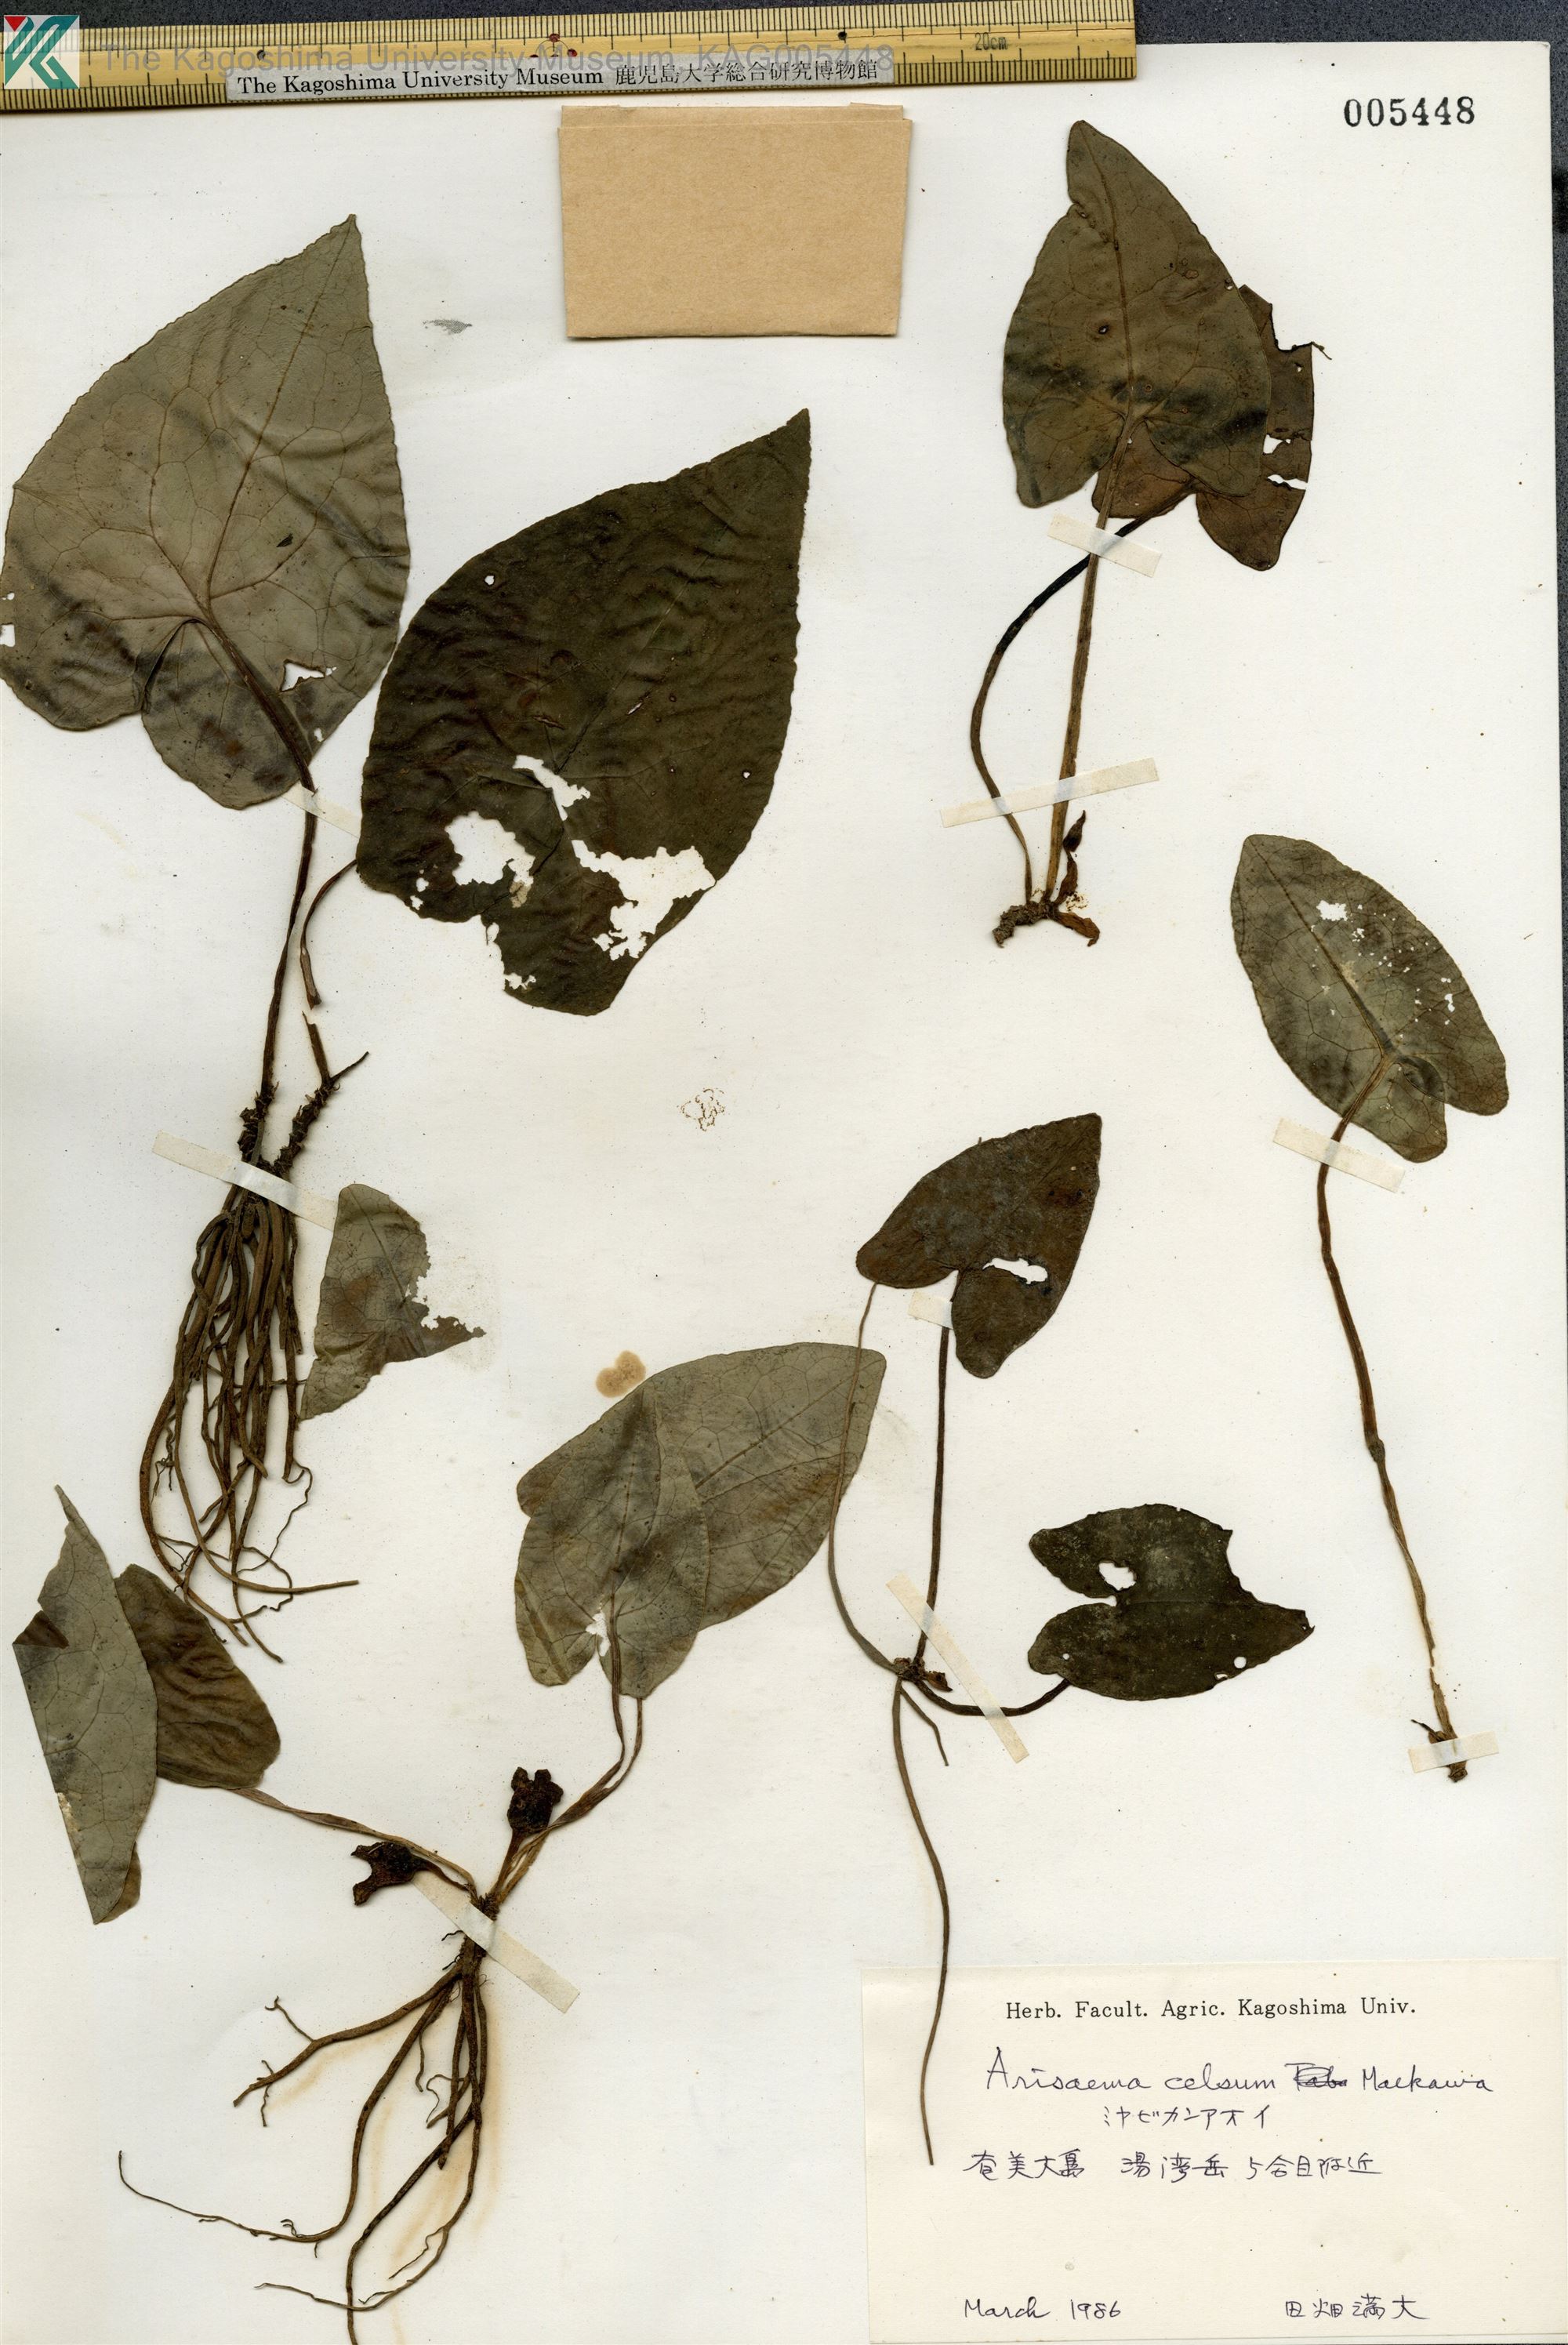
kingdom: Plantae
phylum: Tracheophyta
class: Magnoliopsida
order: Piperales
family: Aristolochiaceae
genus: Asarum
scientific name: Asarum celsum
